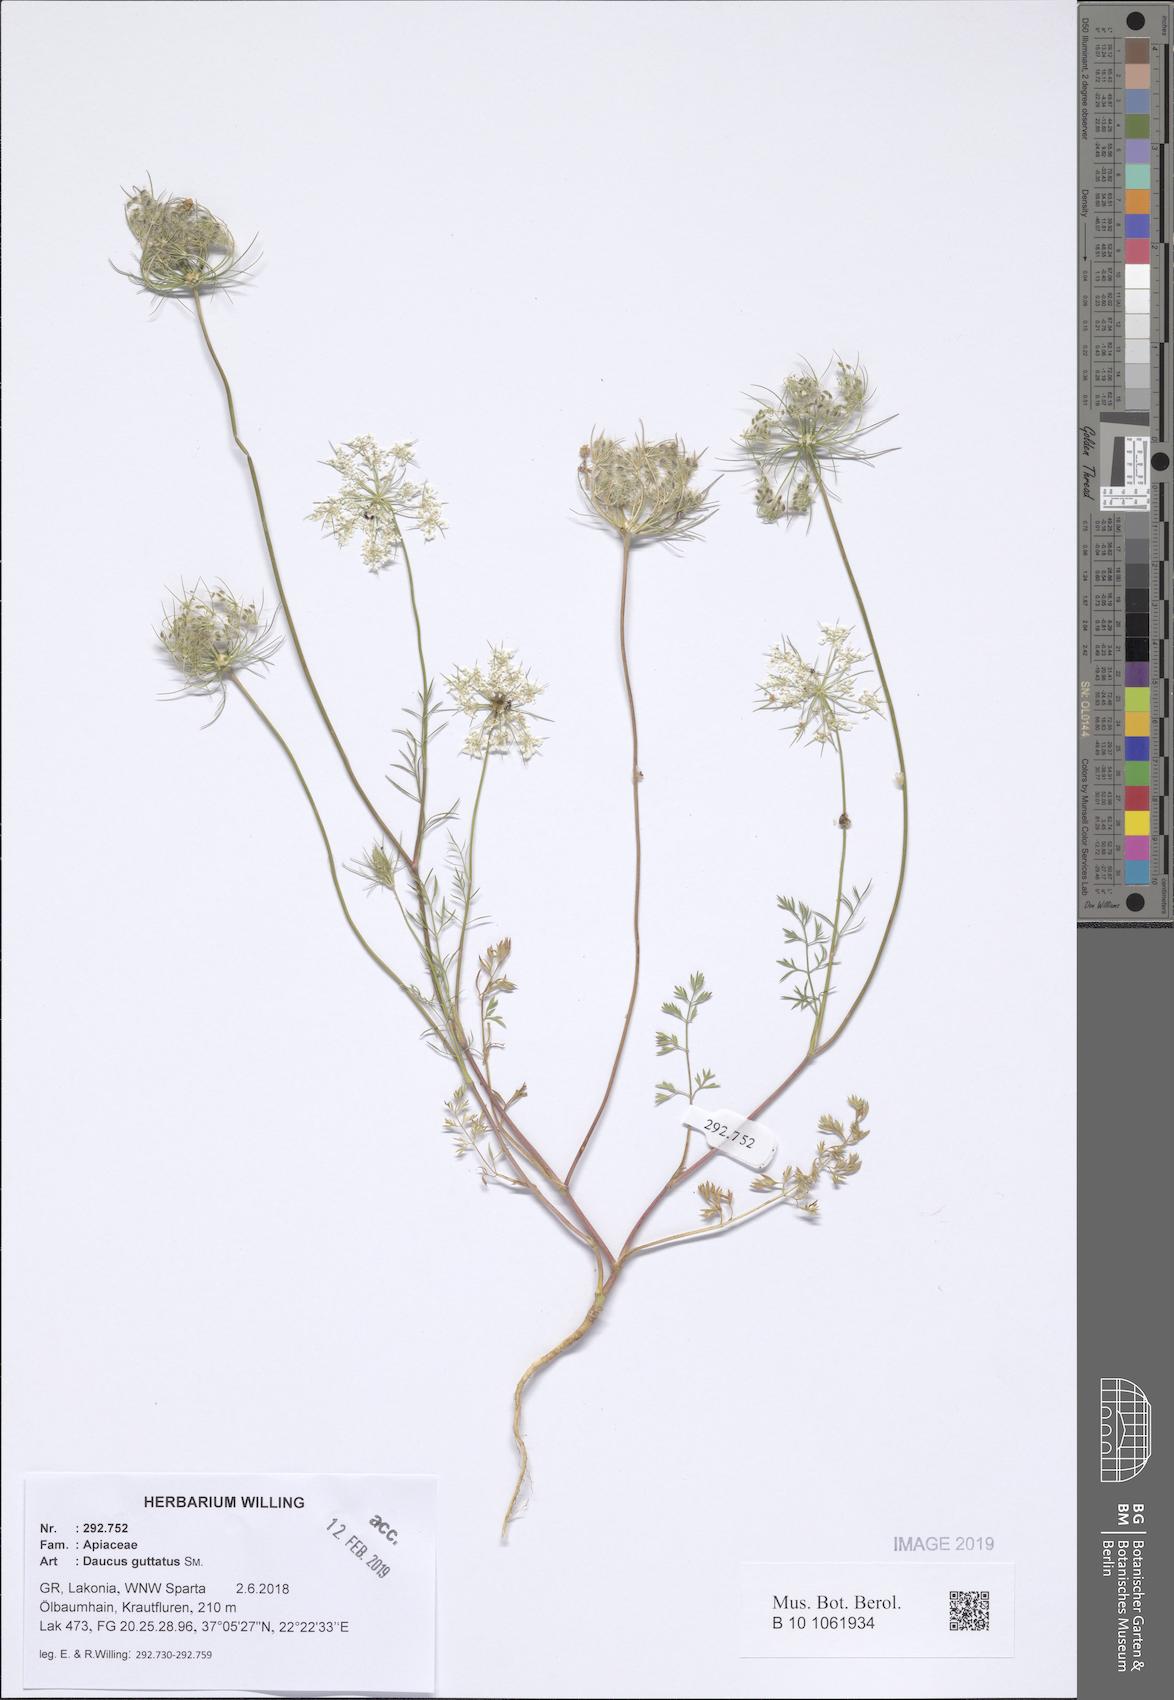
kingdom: Plantae
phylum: Tracheophyta
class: Magnoliopsida
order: Apiales
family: Apiaceae
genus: Daucus
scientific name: Daucus guttatus
